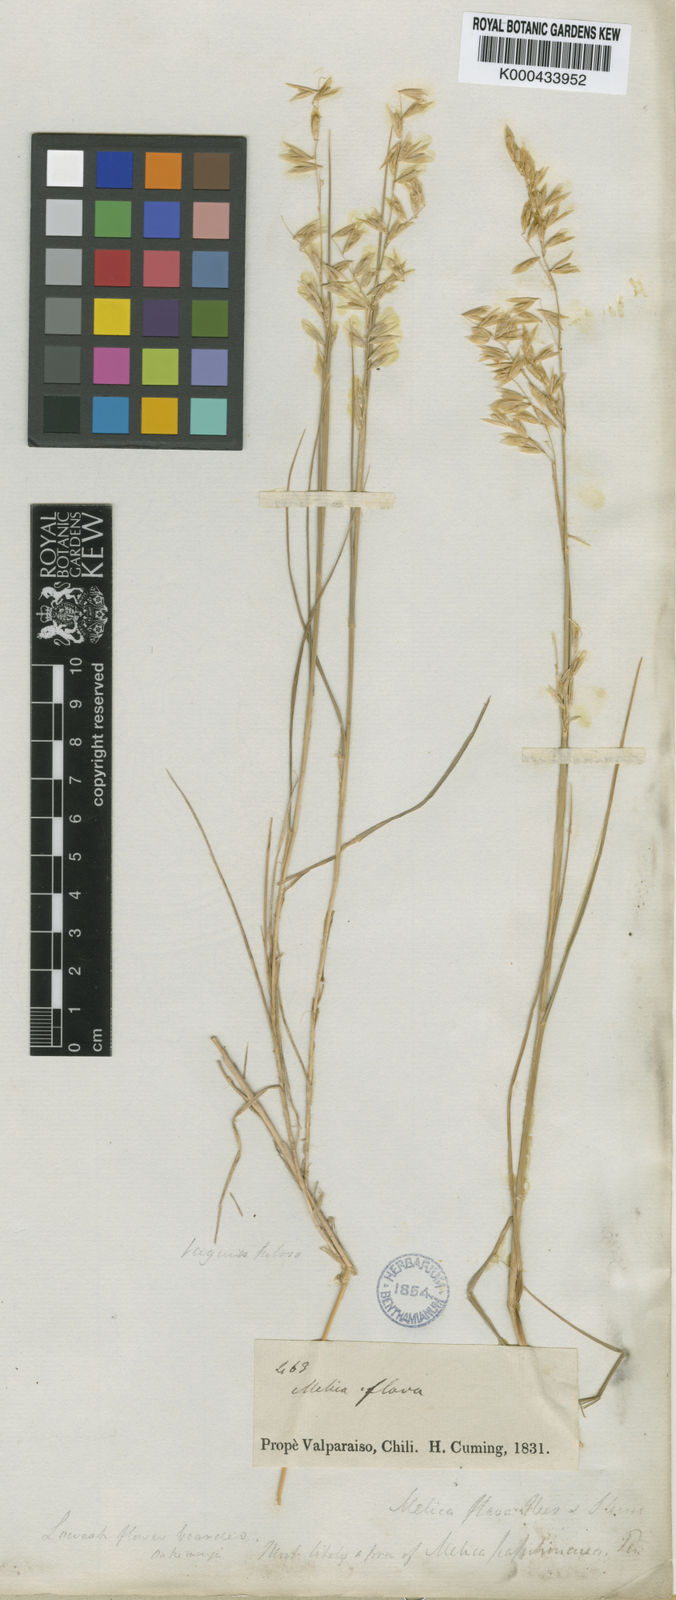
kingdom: Plantae
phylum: Tracheophyta
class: Liliopsida
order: Poales
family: Poaceae
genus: Melica
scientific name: Melica longiflora
